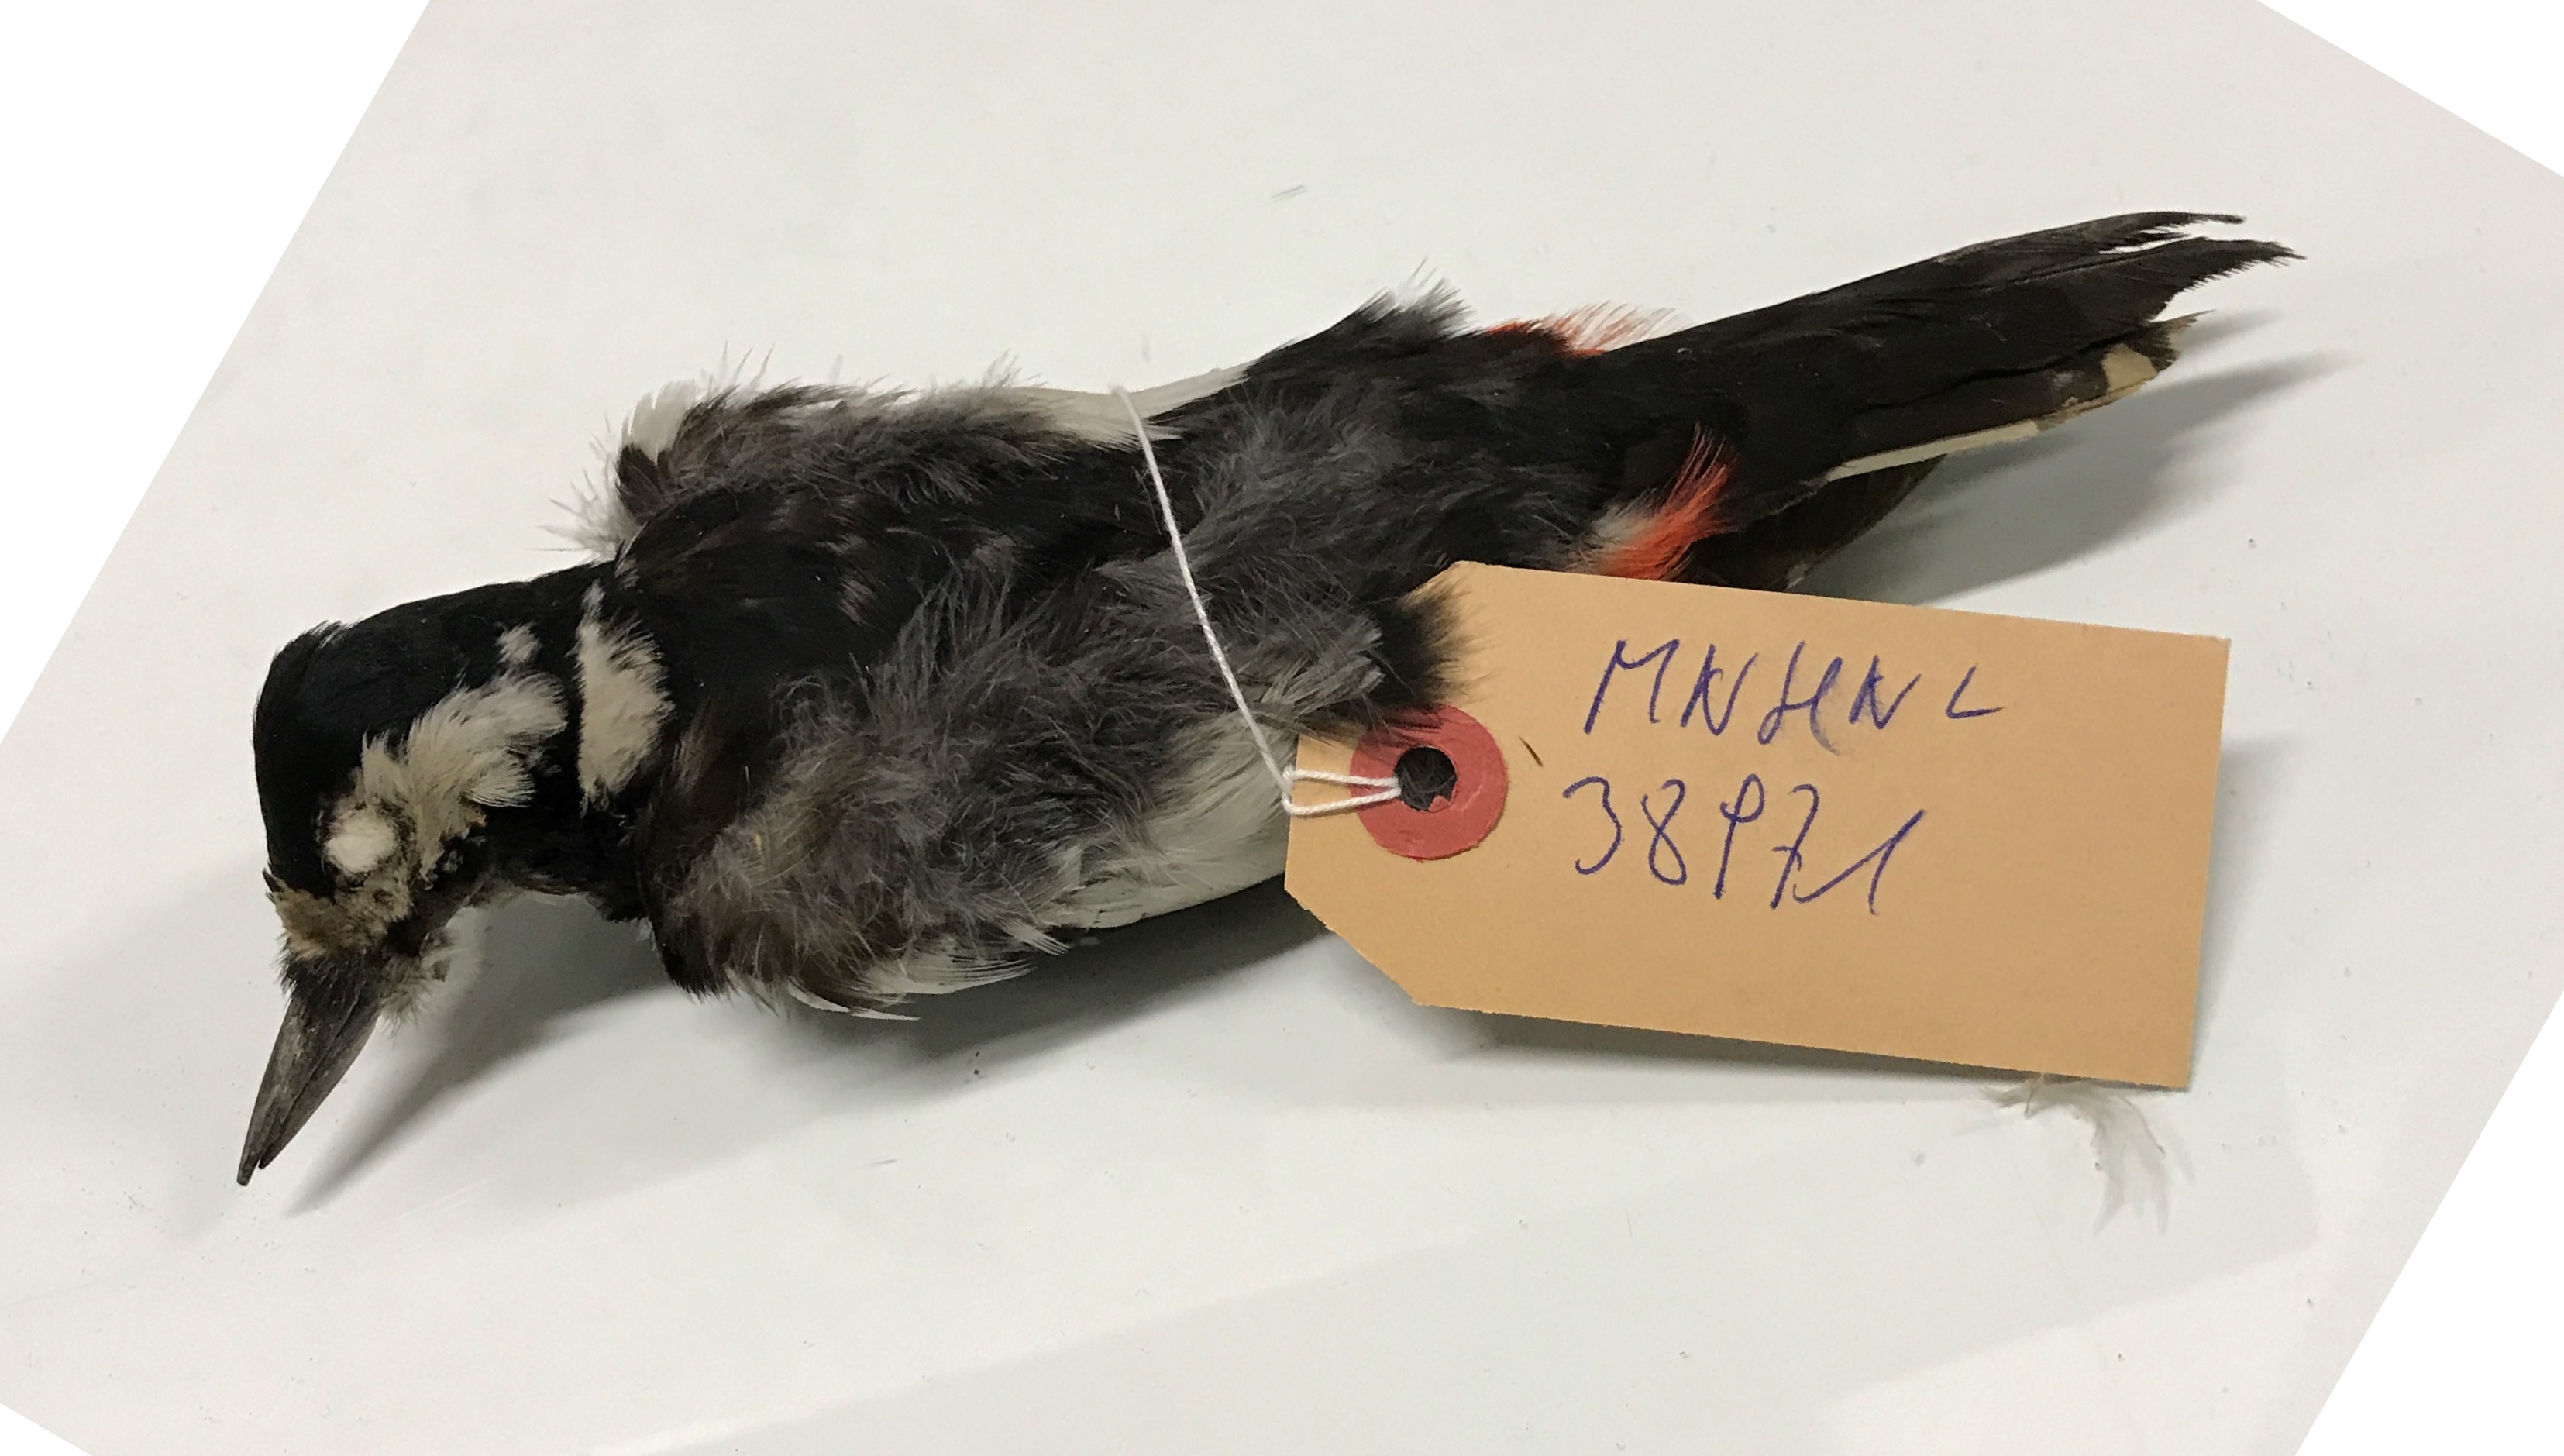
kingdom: Animalia
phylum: Chordata
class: Aves
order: Piciformes
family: Picidae
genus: Dendrocopos
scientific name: Dendrocopos major
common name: Great spotted woodpecker
